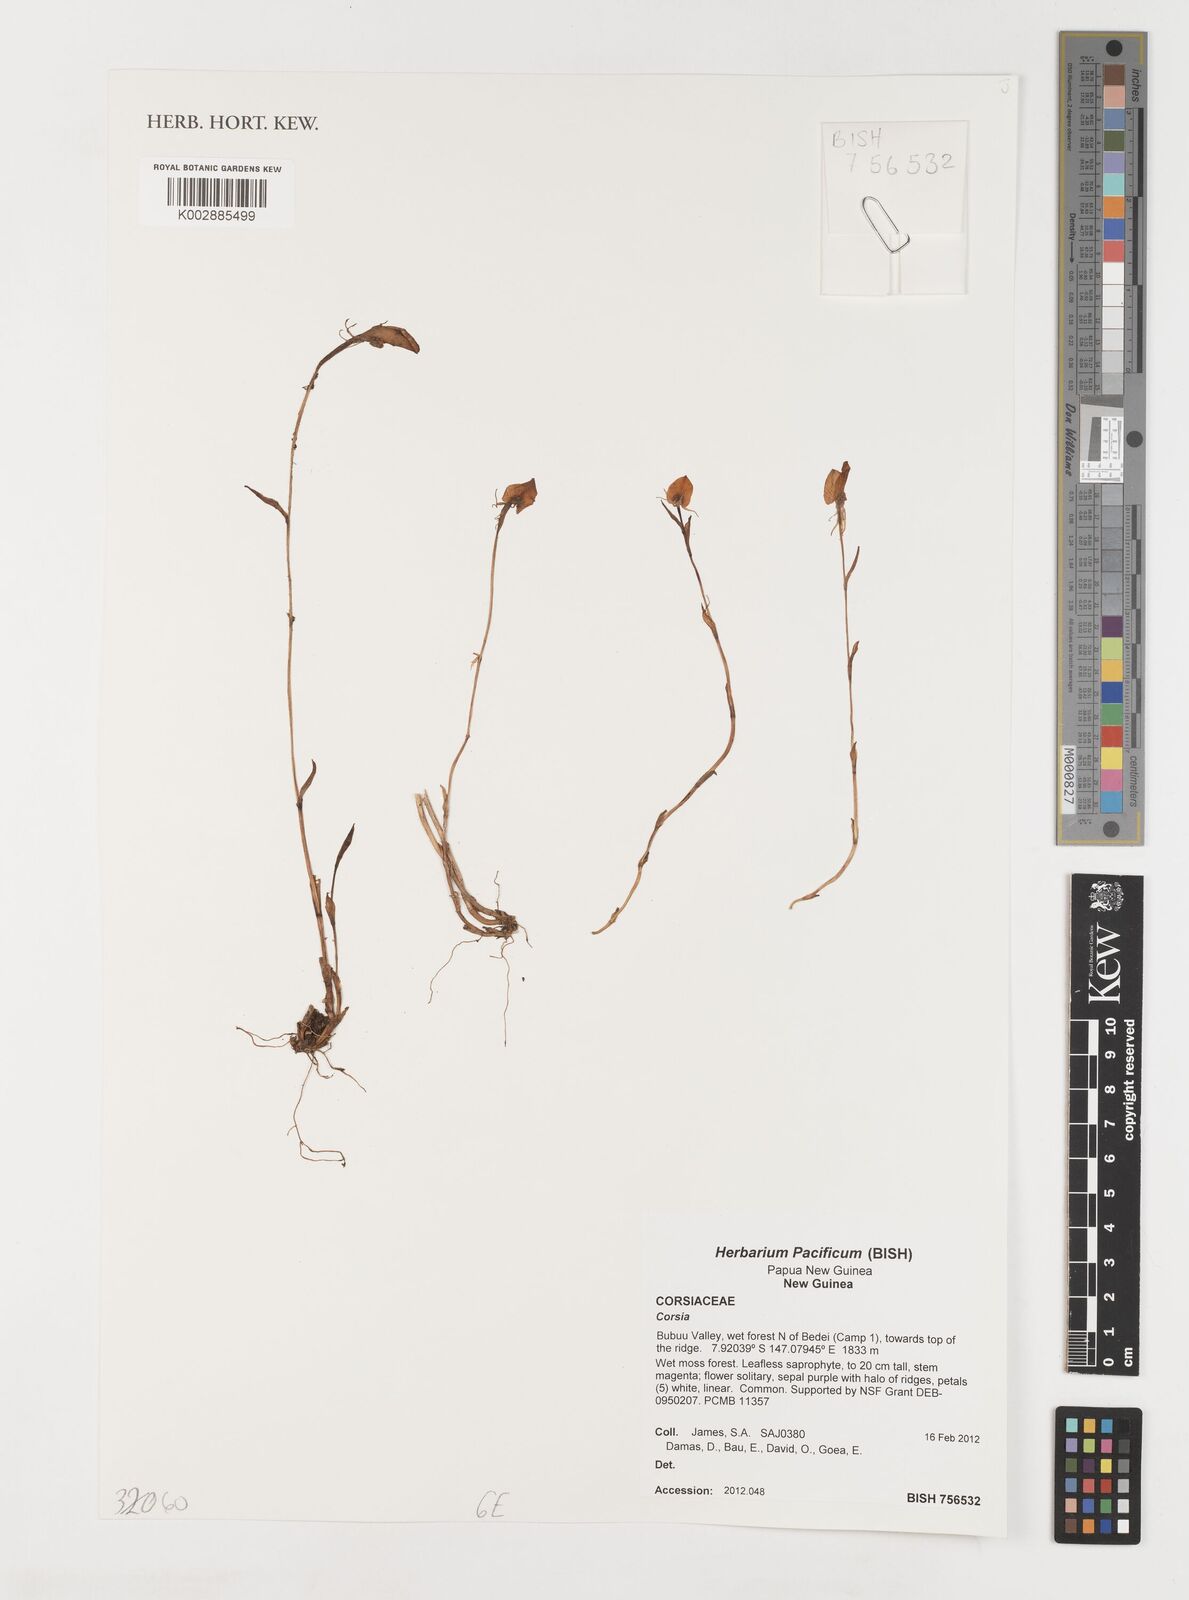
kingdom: Plantae
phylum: Tracheophyta
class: Liliopsida
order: Liliales
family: Corsiaceae
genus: Corsia
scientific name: Corsia
